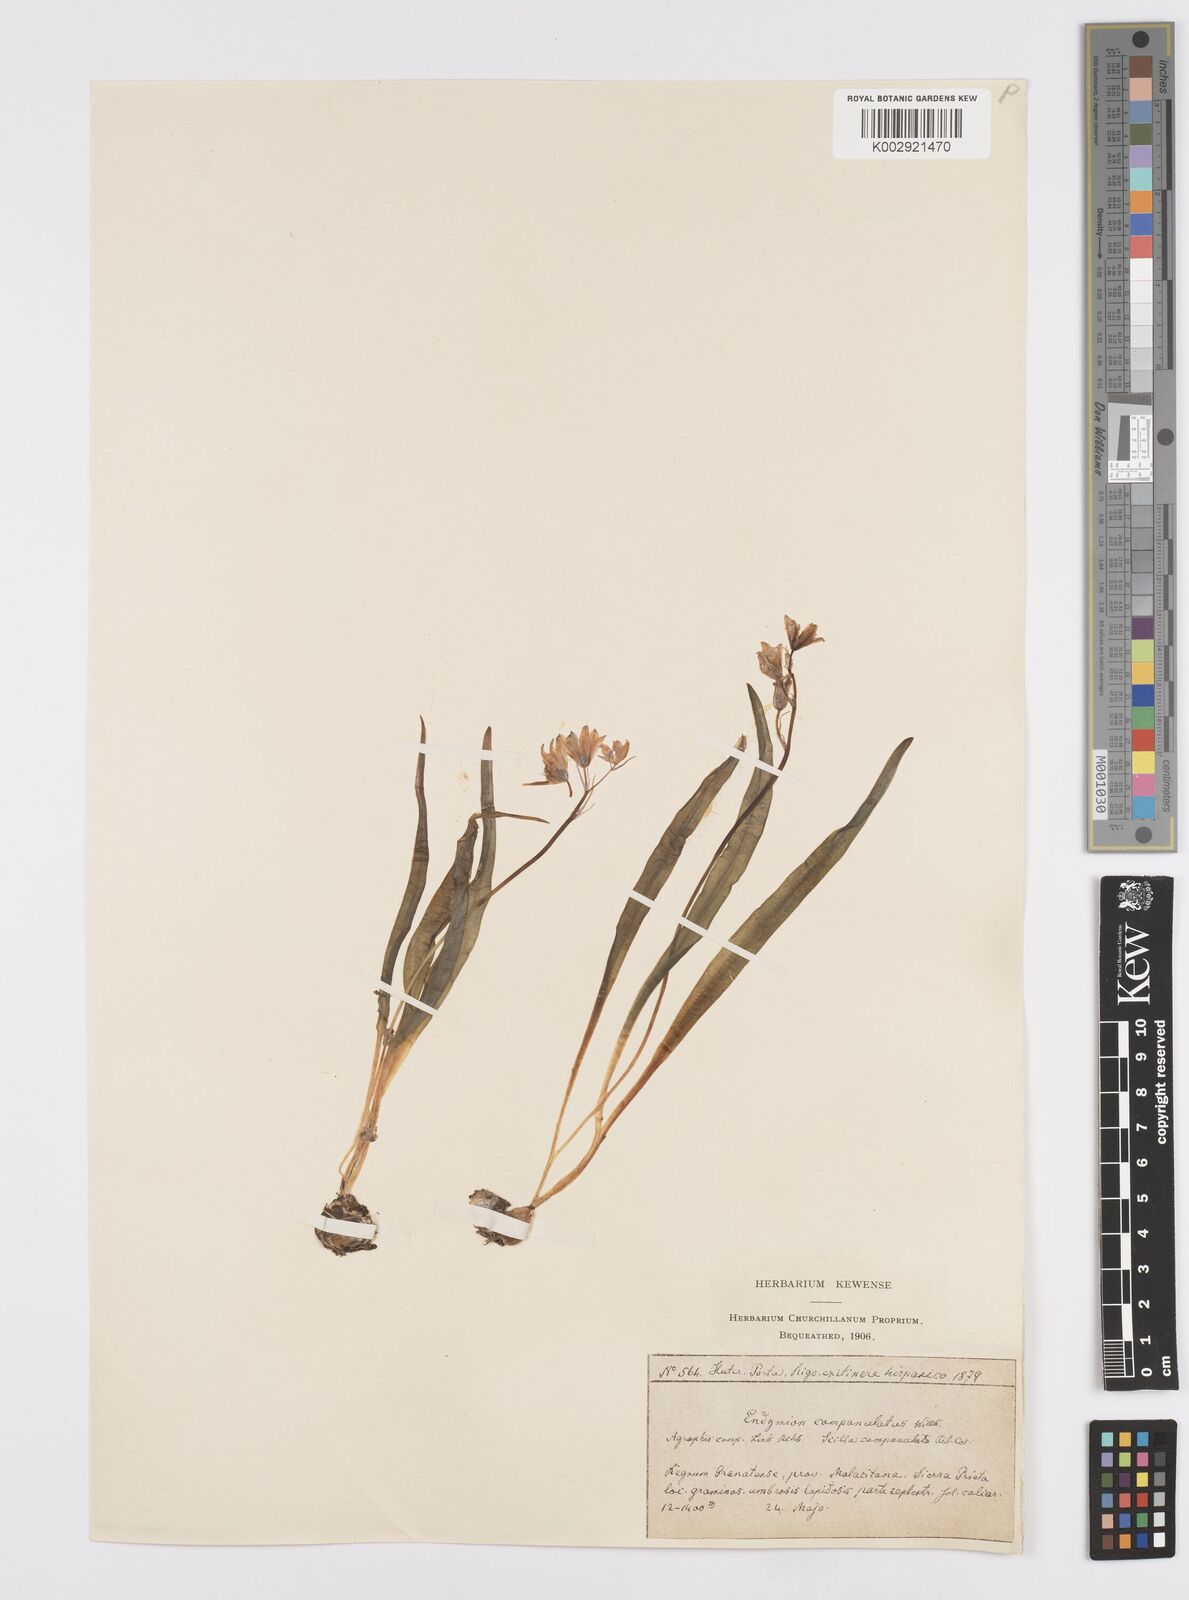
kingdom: Plantae
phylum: Tracheophyta
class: Liliopsida
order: Asparagales
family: Asparagaceae
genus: Hyacinthoides
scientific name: Hyacinthoides hispanica
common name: Spanish bluebell
